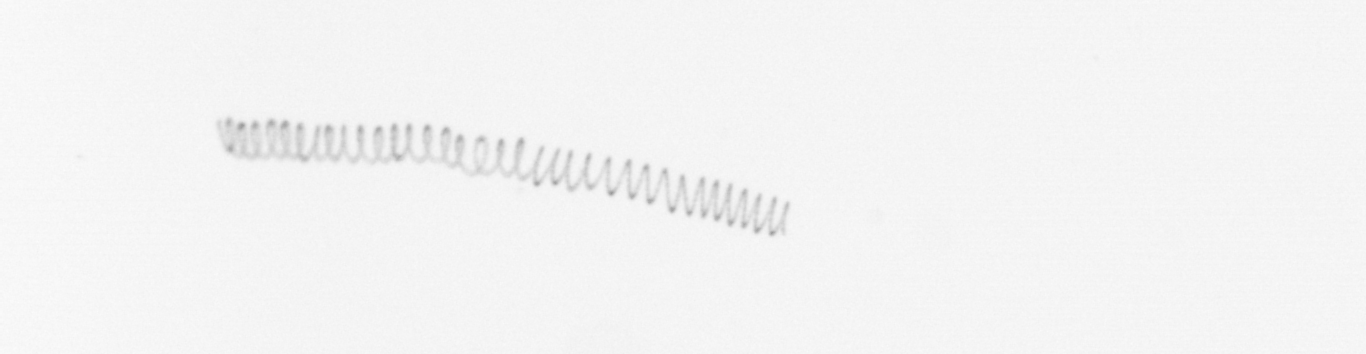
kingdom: Chromista
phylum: Ochrophyta
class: Bacillariophyceae
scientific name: Bacillariophyceae
